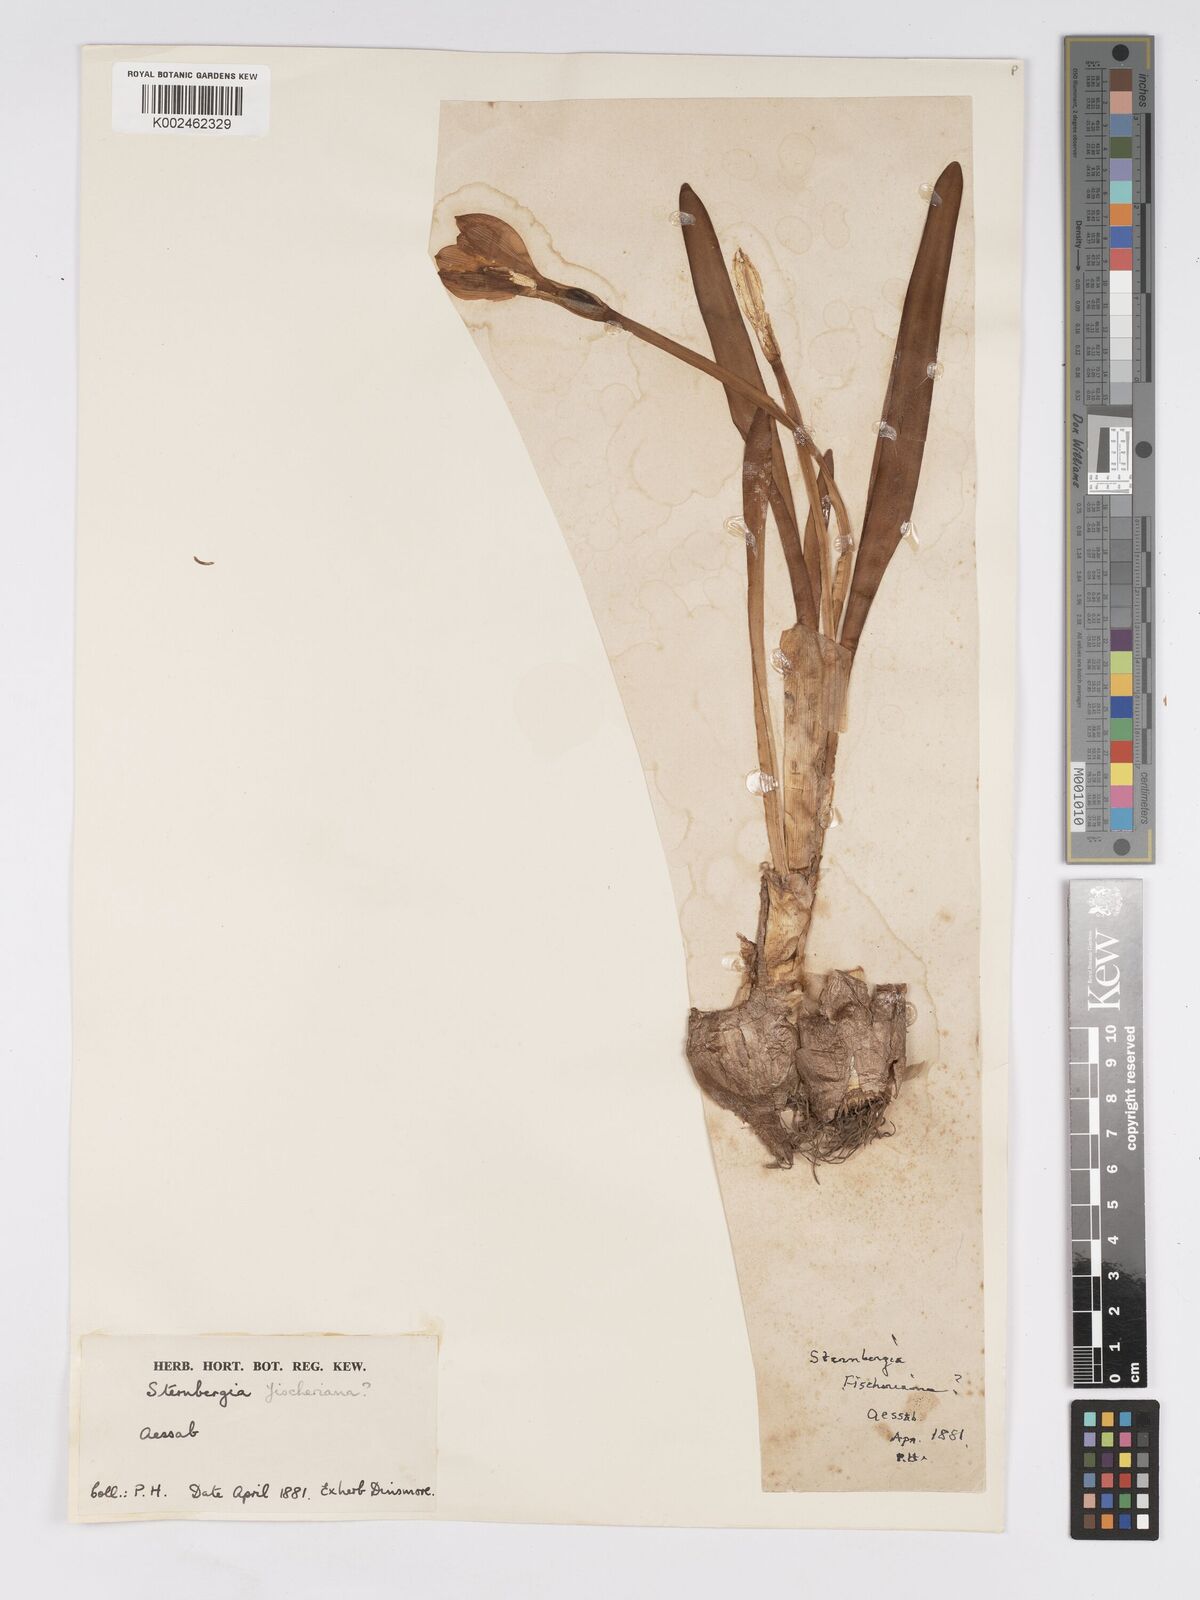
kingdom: Plantae
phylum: Tracheophyta
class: Liliopsida
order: Asparagales
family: Amaryllidaceae
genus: Sternbergia
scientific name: Sternbergia vernalis
